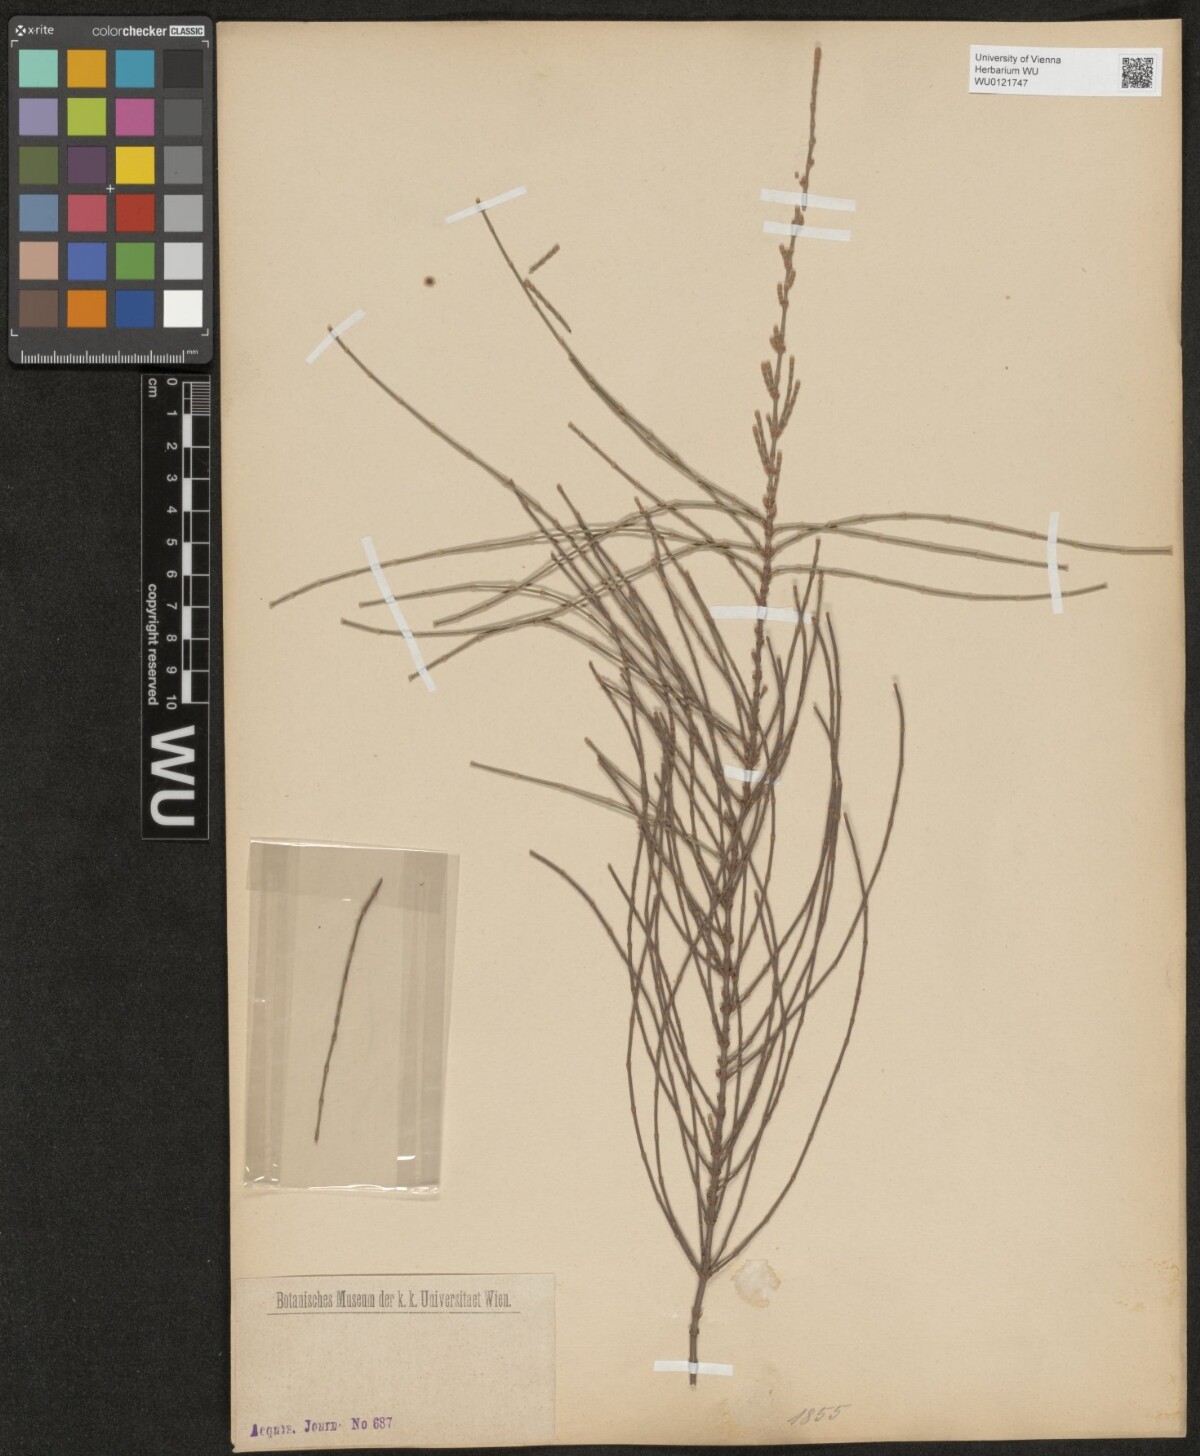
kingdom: Plantae
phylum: Tracheophyta
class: Magnoliopsida
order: Fagales
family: Casuarinaceae
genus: Casuarina
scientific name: Casuarina
